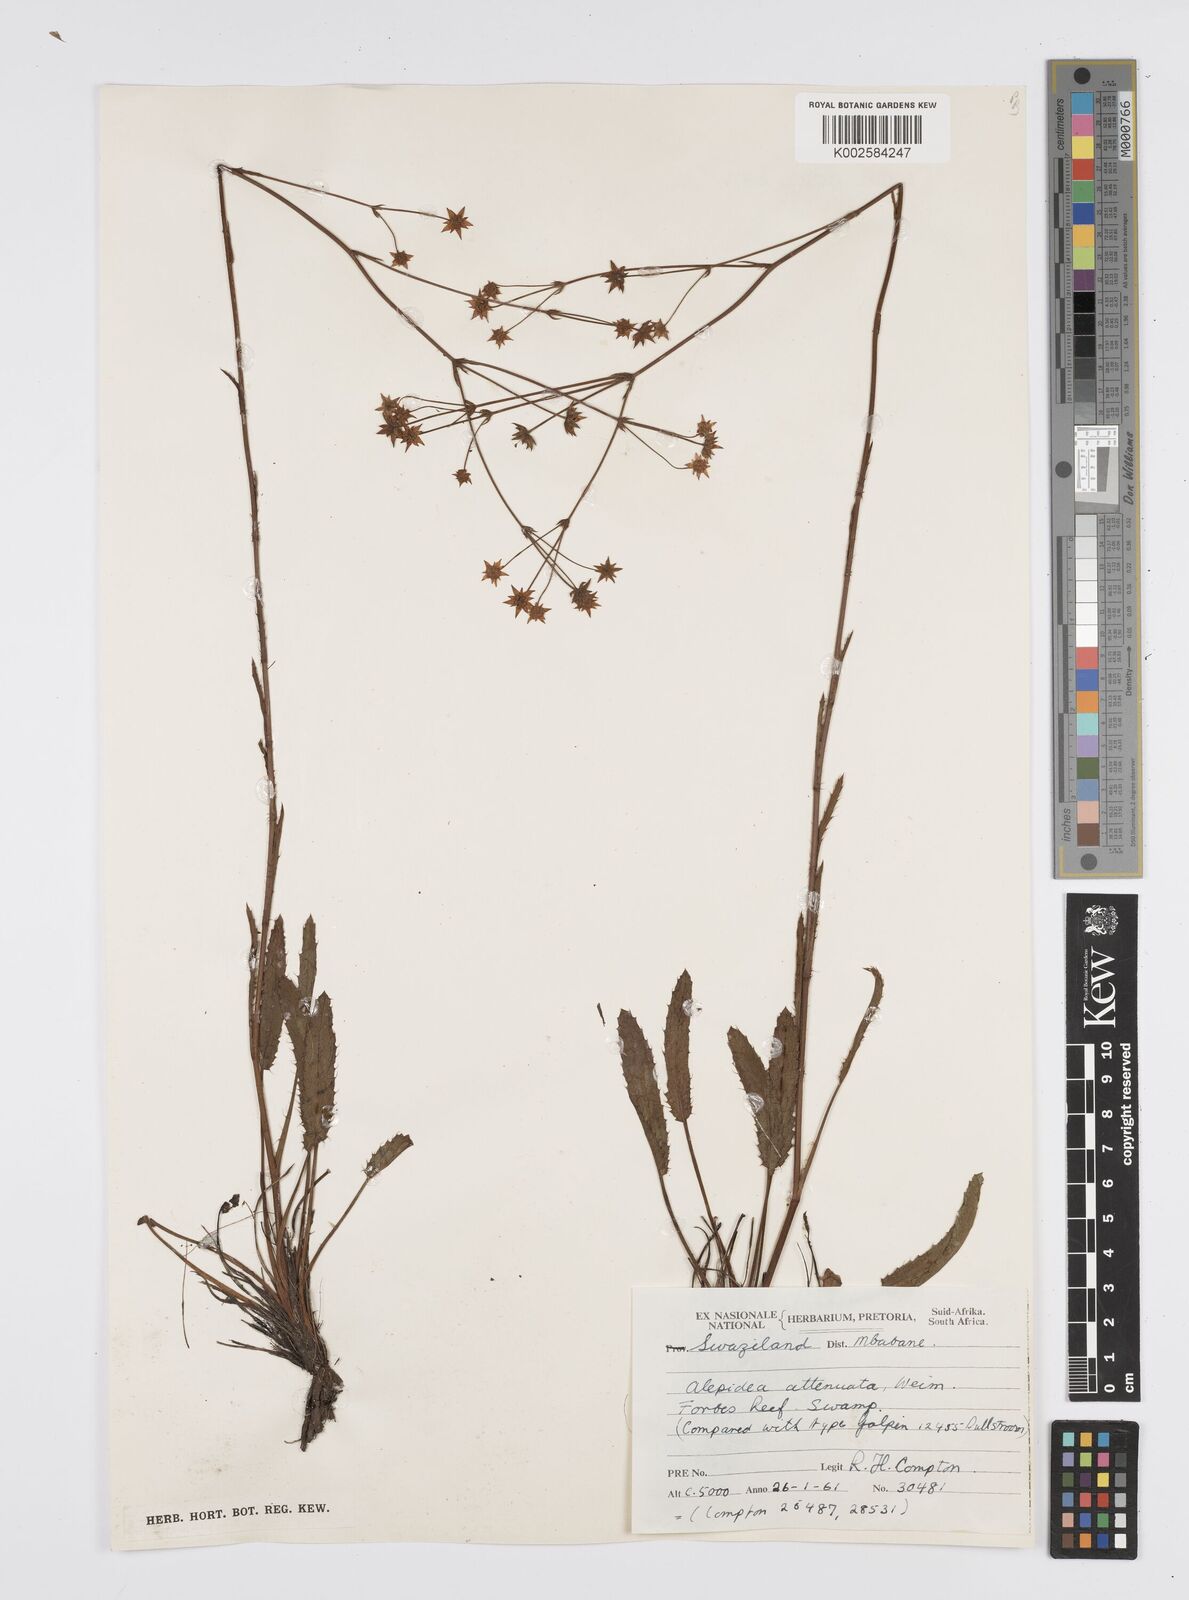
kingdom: Plantae
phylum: Tracheophyta
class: Magnoliopsida
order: Apiales
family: Apiaceae
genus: Alepidea
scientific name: Alepidea attenuata
